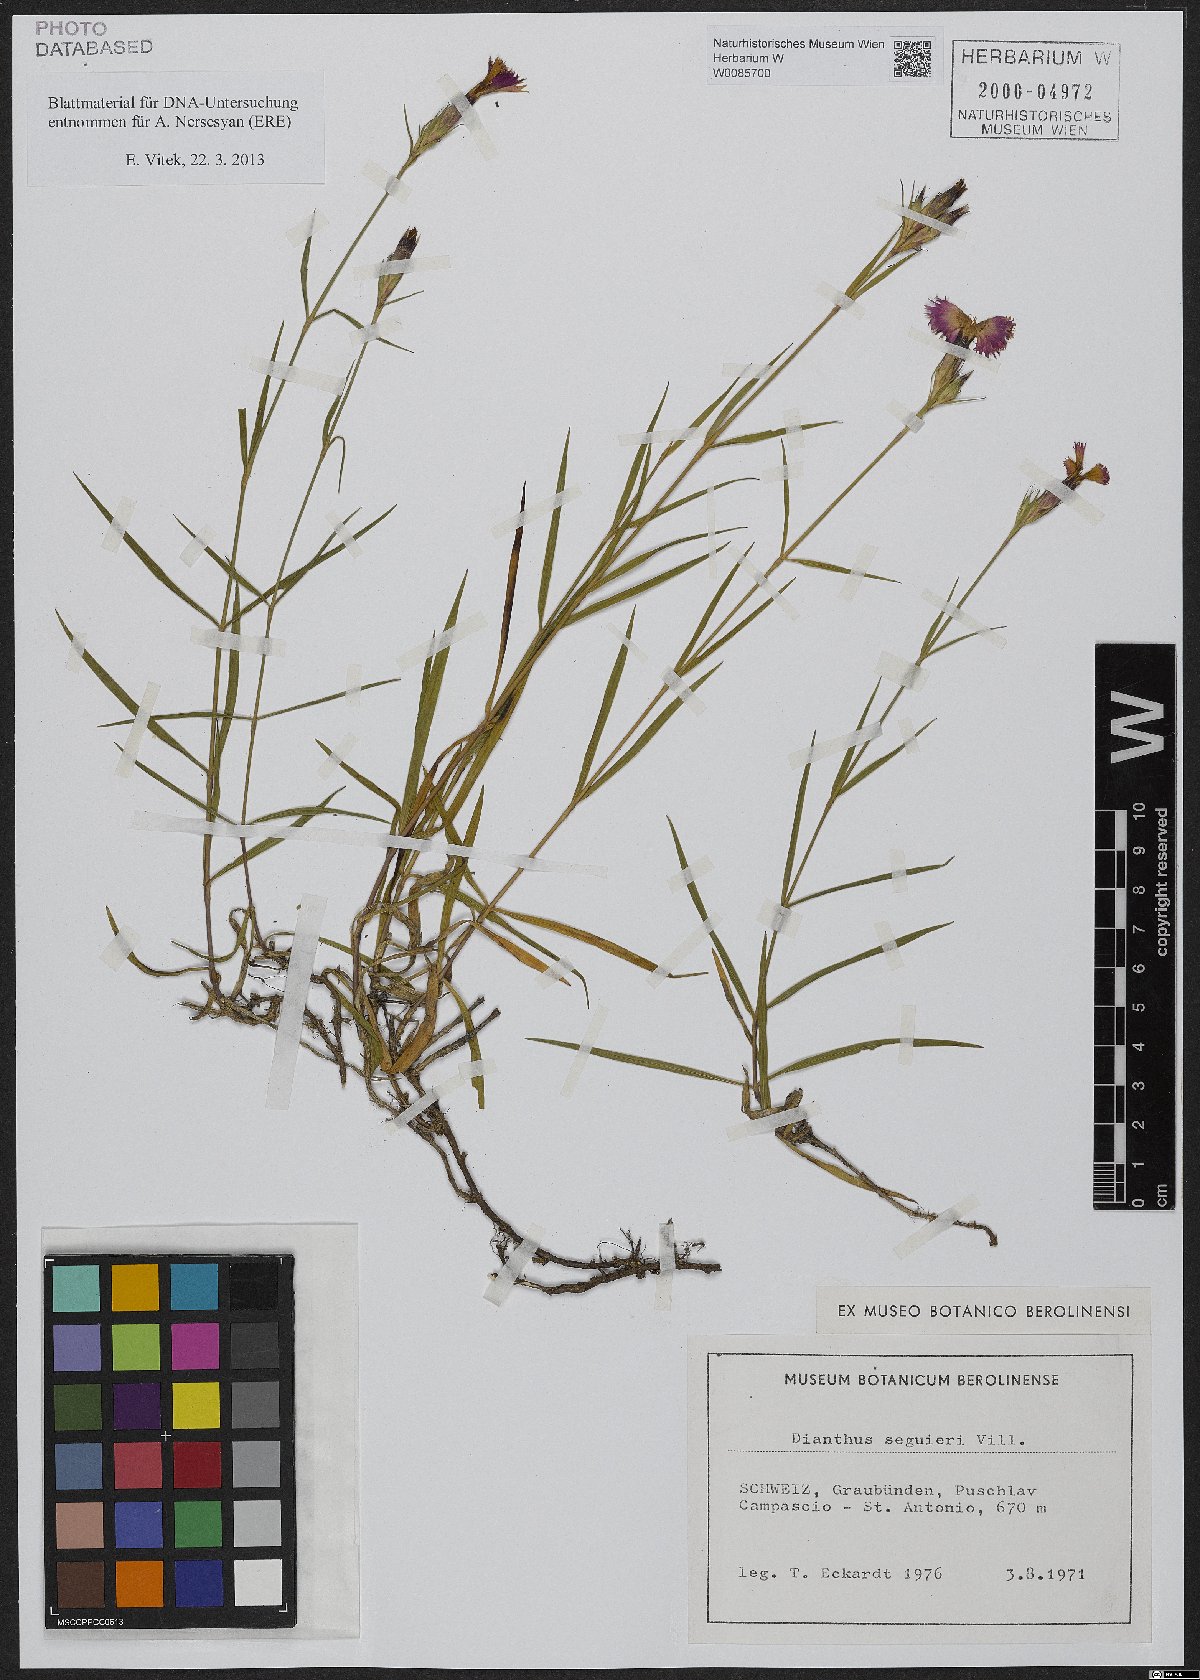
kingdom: Plantae
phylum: Tracheophyta
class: Magnoliopsida
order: Caryophyllales
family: Caryophyllaceae
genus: Dianthus
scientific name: Dianthus seguieri
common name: Ragged pink
